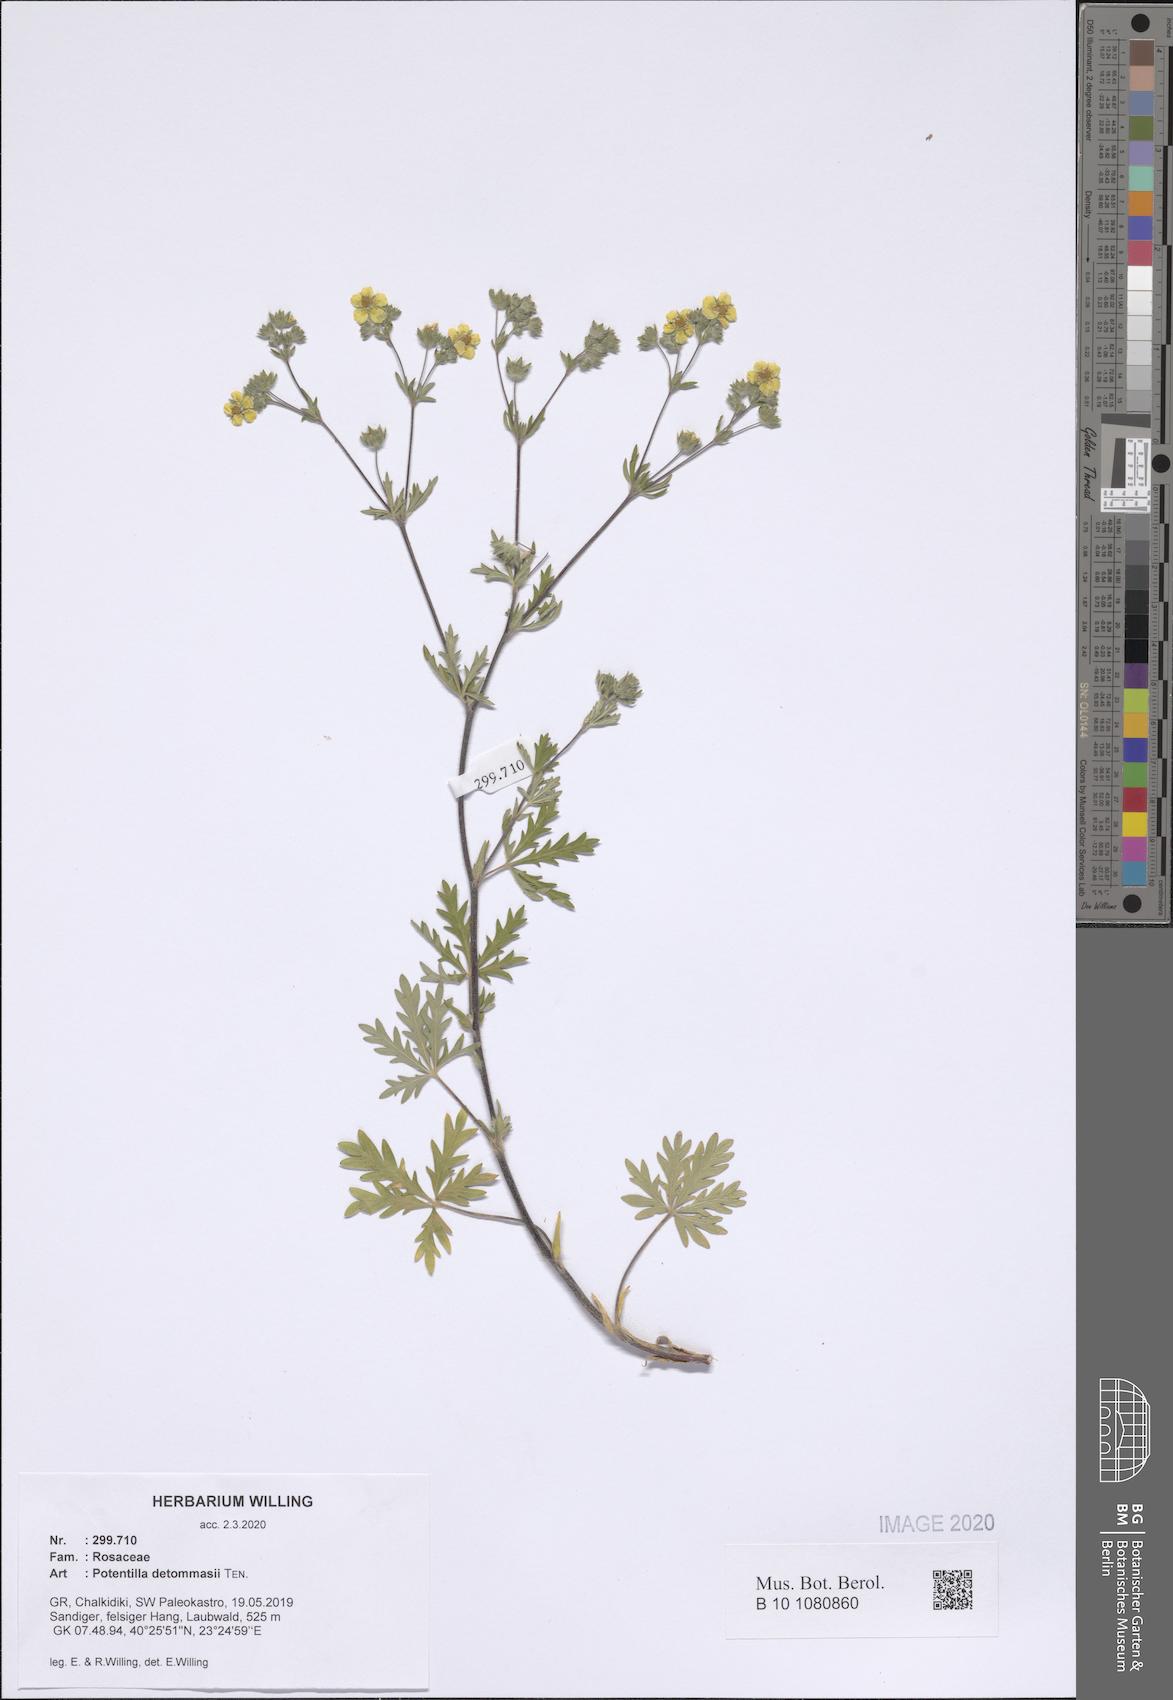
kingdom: Plantae
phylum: Tracheophyta
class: Magnoliopsida
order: Rosales
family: Rosaceae
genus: Potentilla
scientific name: Potentilla detommasii
